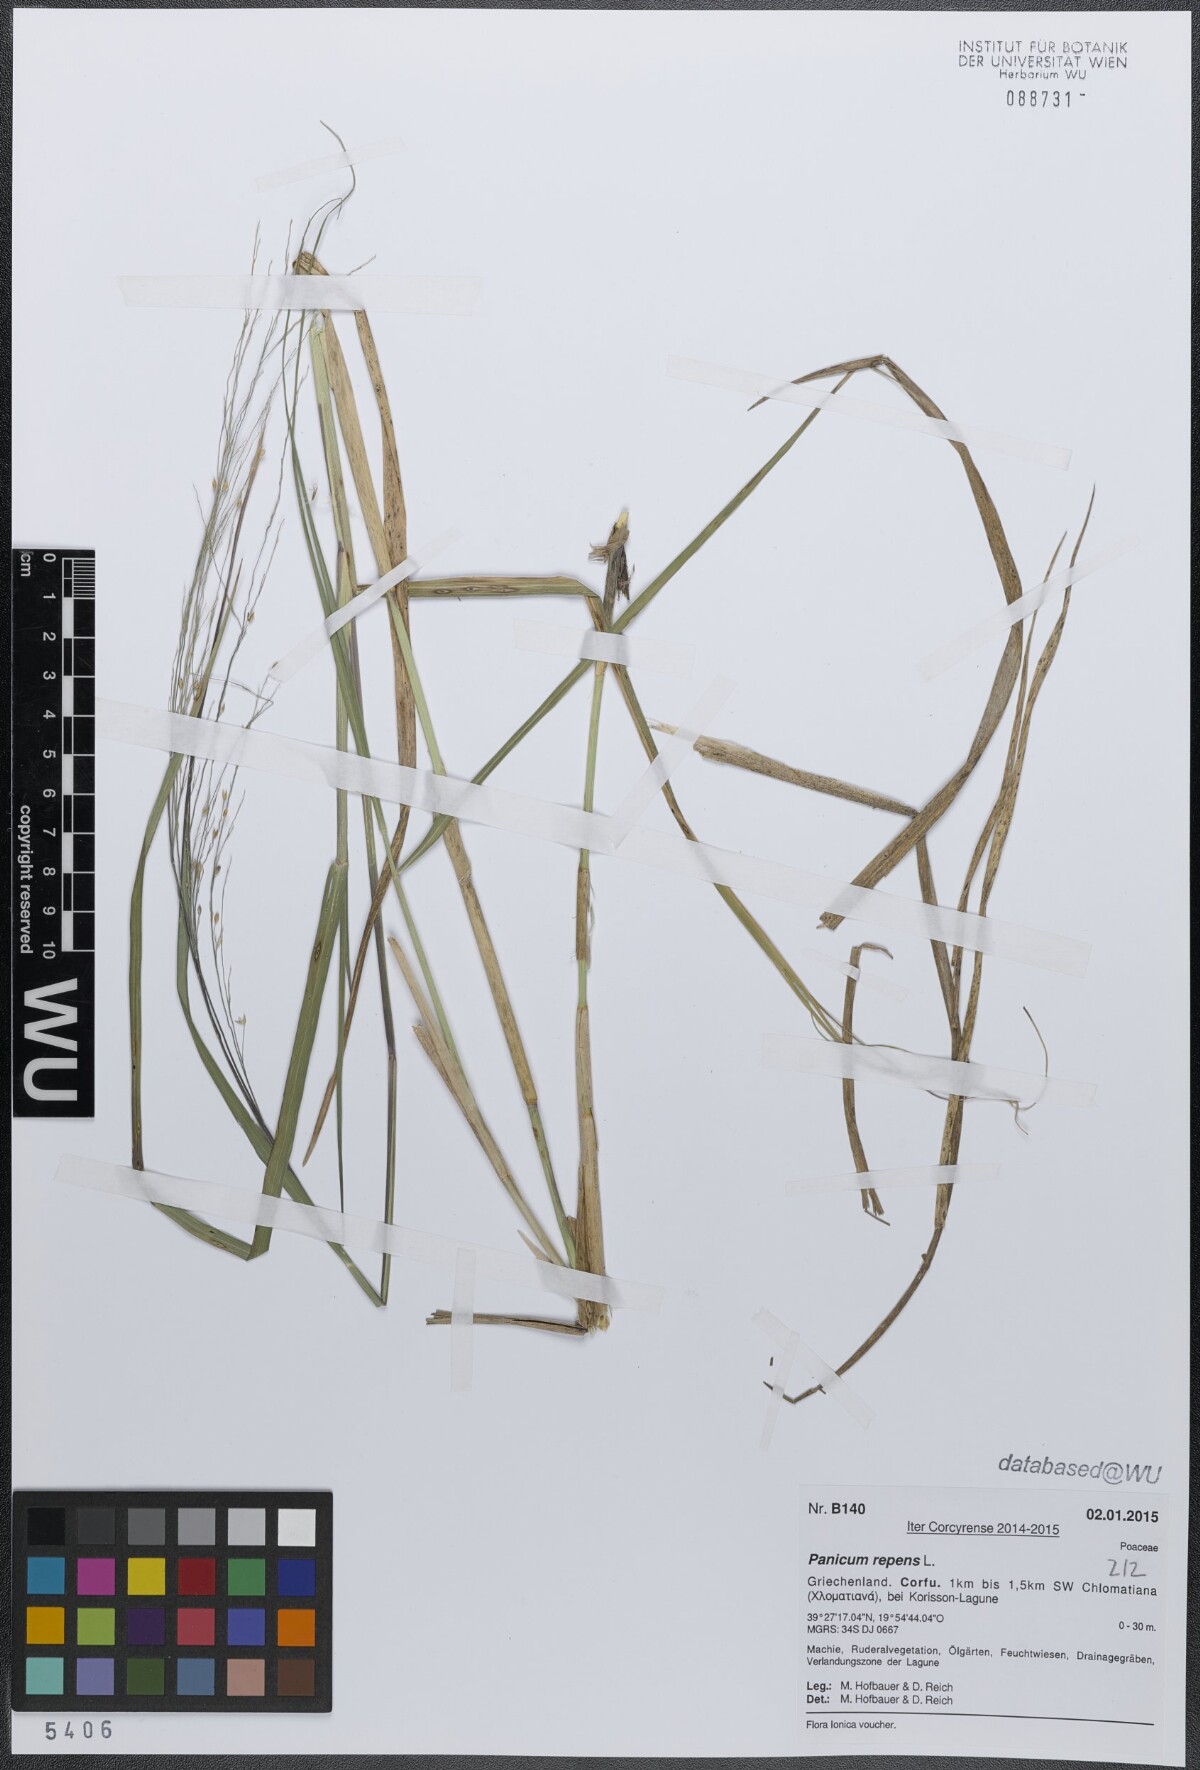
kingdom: Plantae
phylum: Tracheophyta
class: Liliopsida
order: Poales
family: Poaceae
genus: Panicum
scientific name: Panicum repens
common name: Torpedo grass
